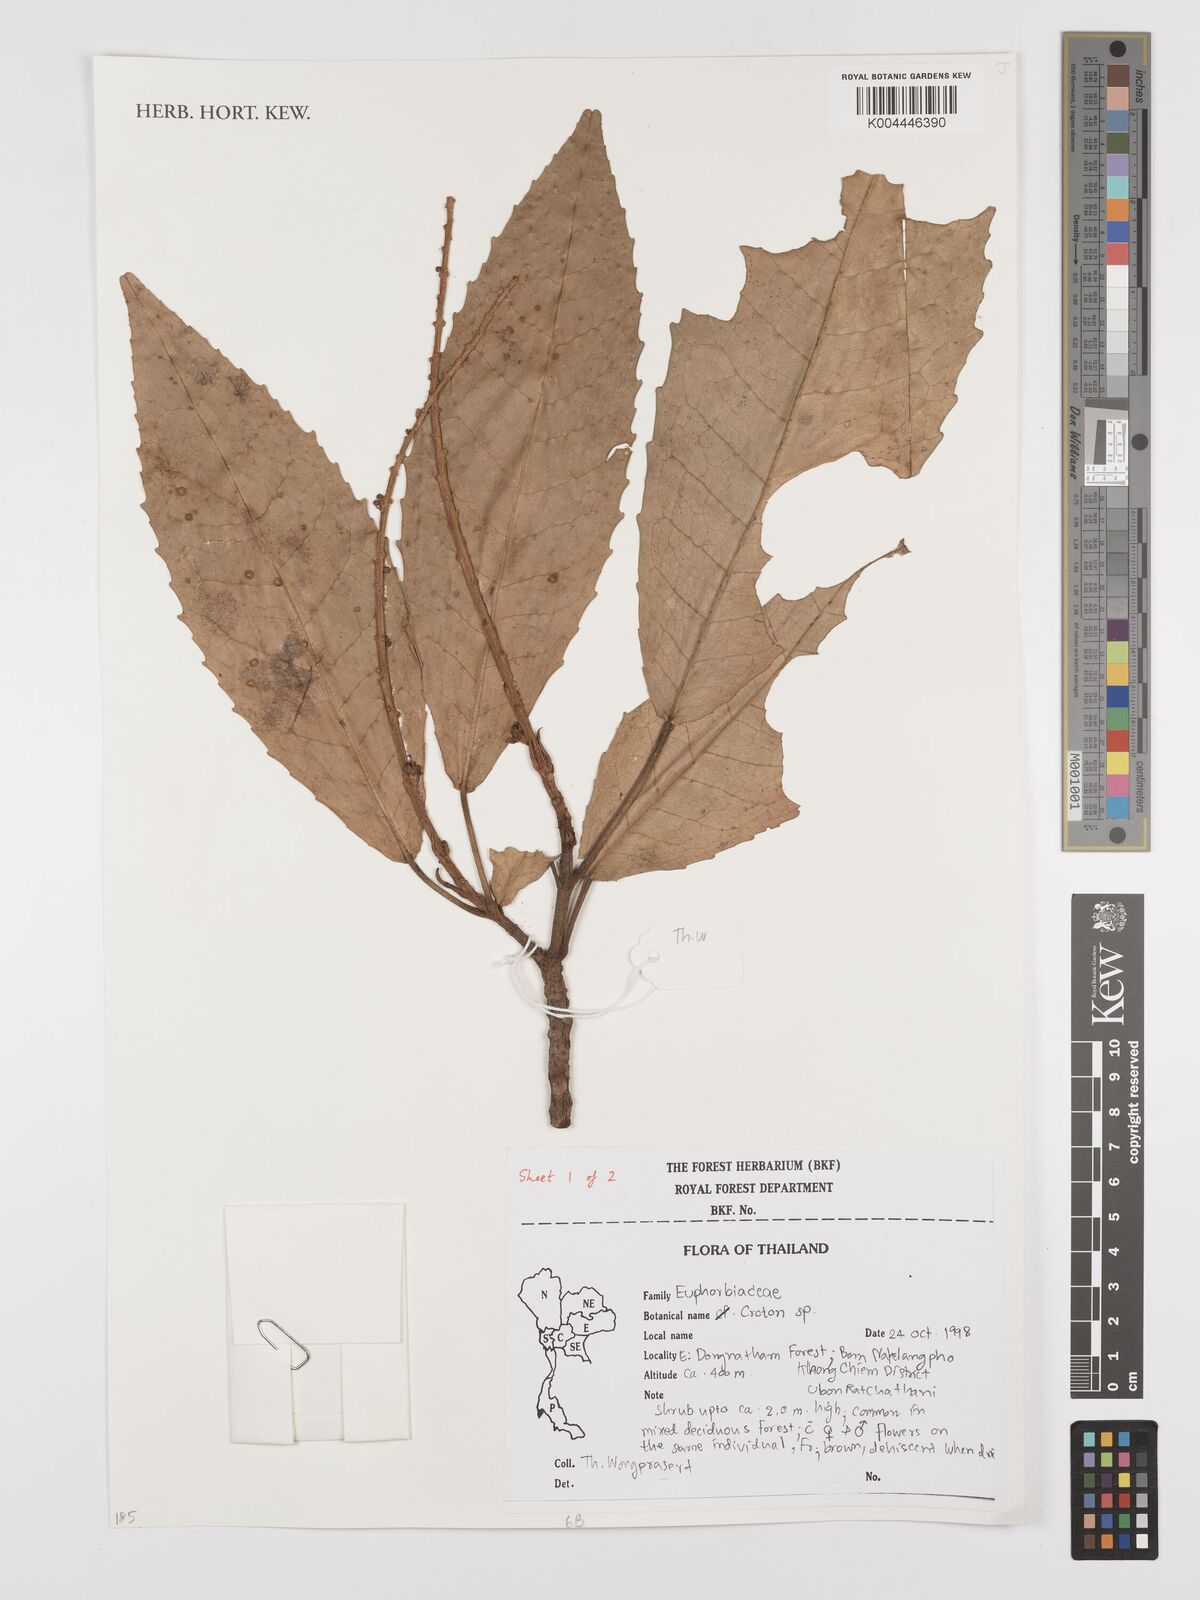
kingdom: Plantae
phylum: Tracheophyta
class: Magnoliopsida
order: Malpighiales
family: Euphorbiaceae
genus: Croton
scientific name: Croton
